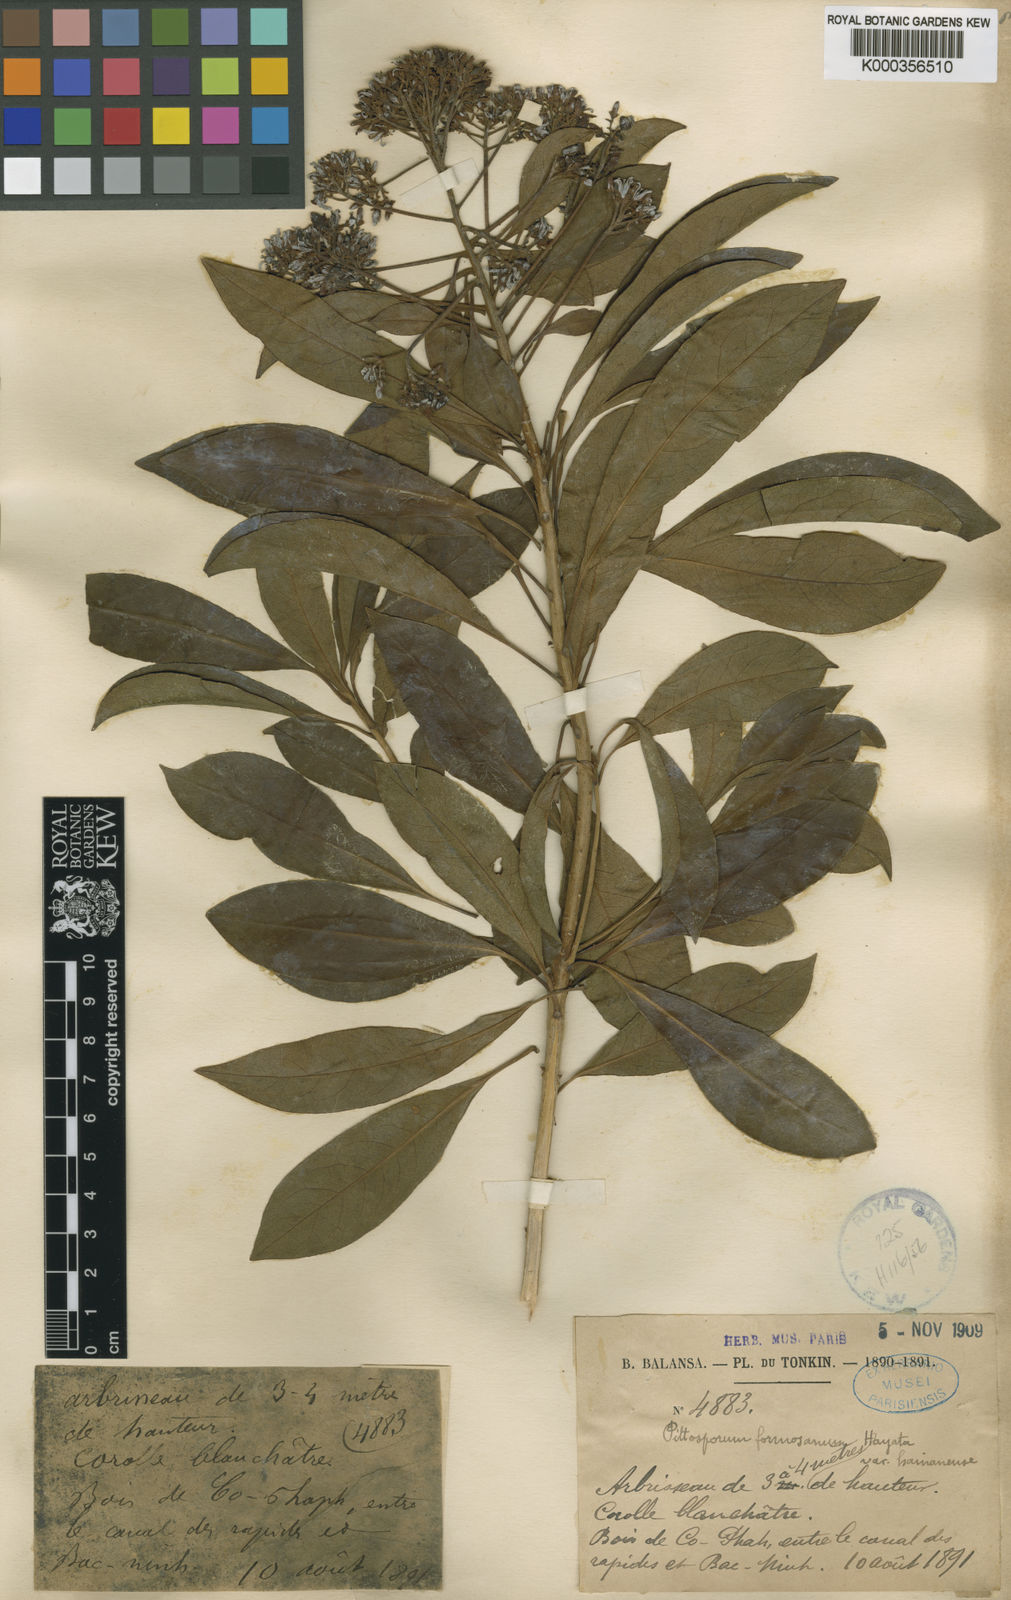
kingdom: Plantae
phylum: Tracheophyta
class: Magnoliopsida
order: Apiales
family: Pittosporaceae
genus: Pittosporum
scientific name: Pittosporum pentandrum
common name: Taiwanese cheesewood
